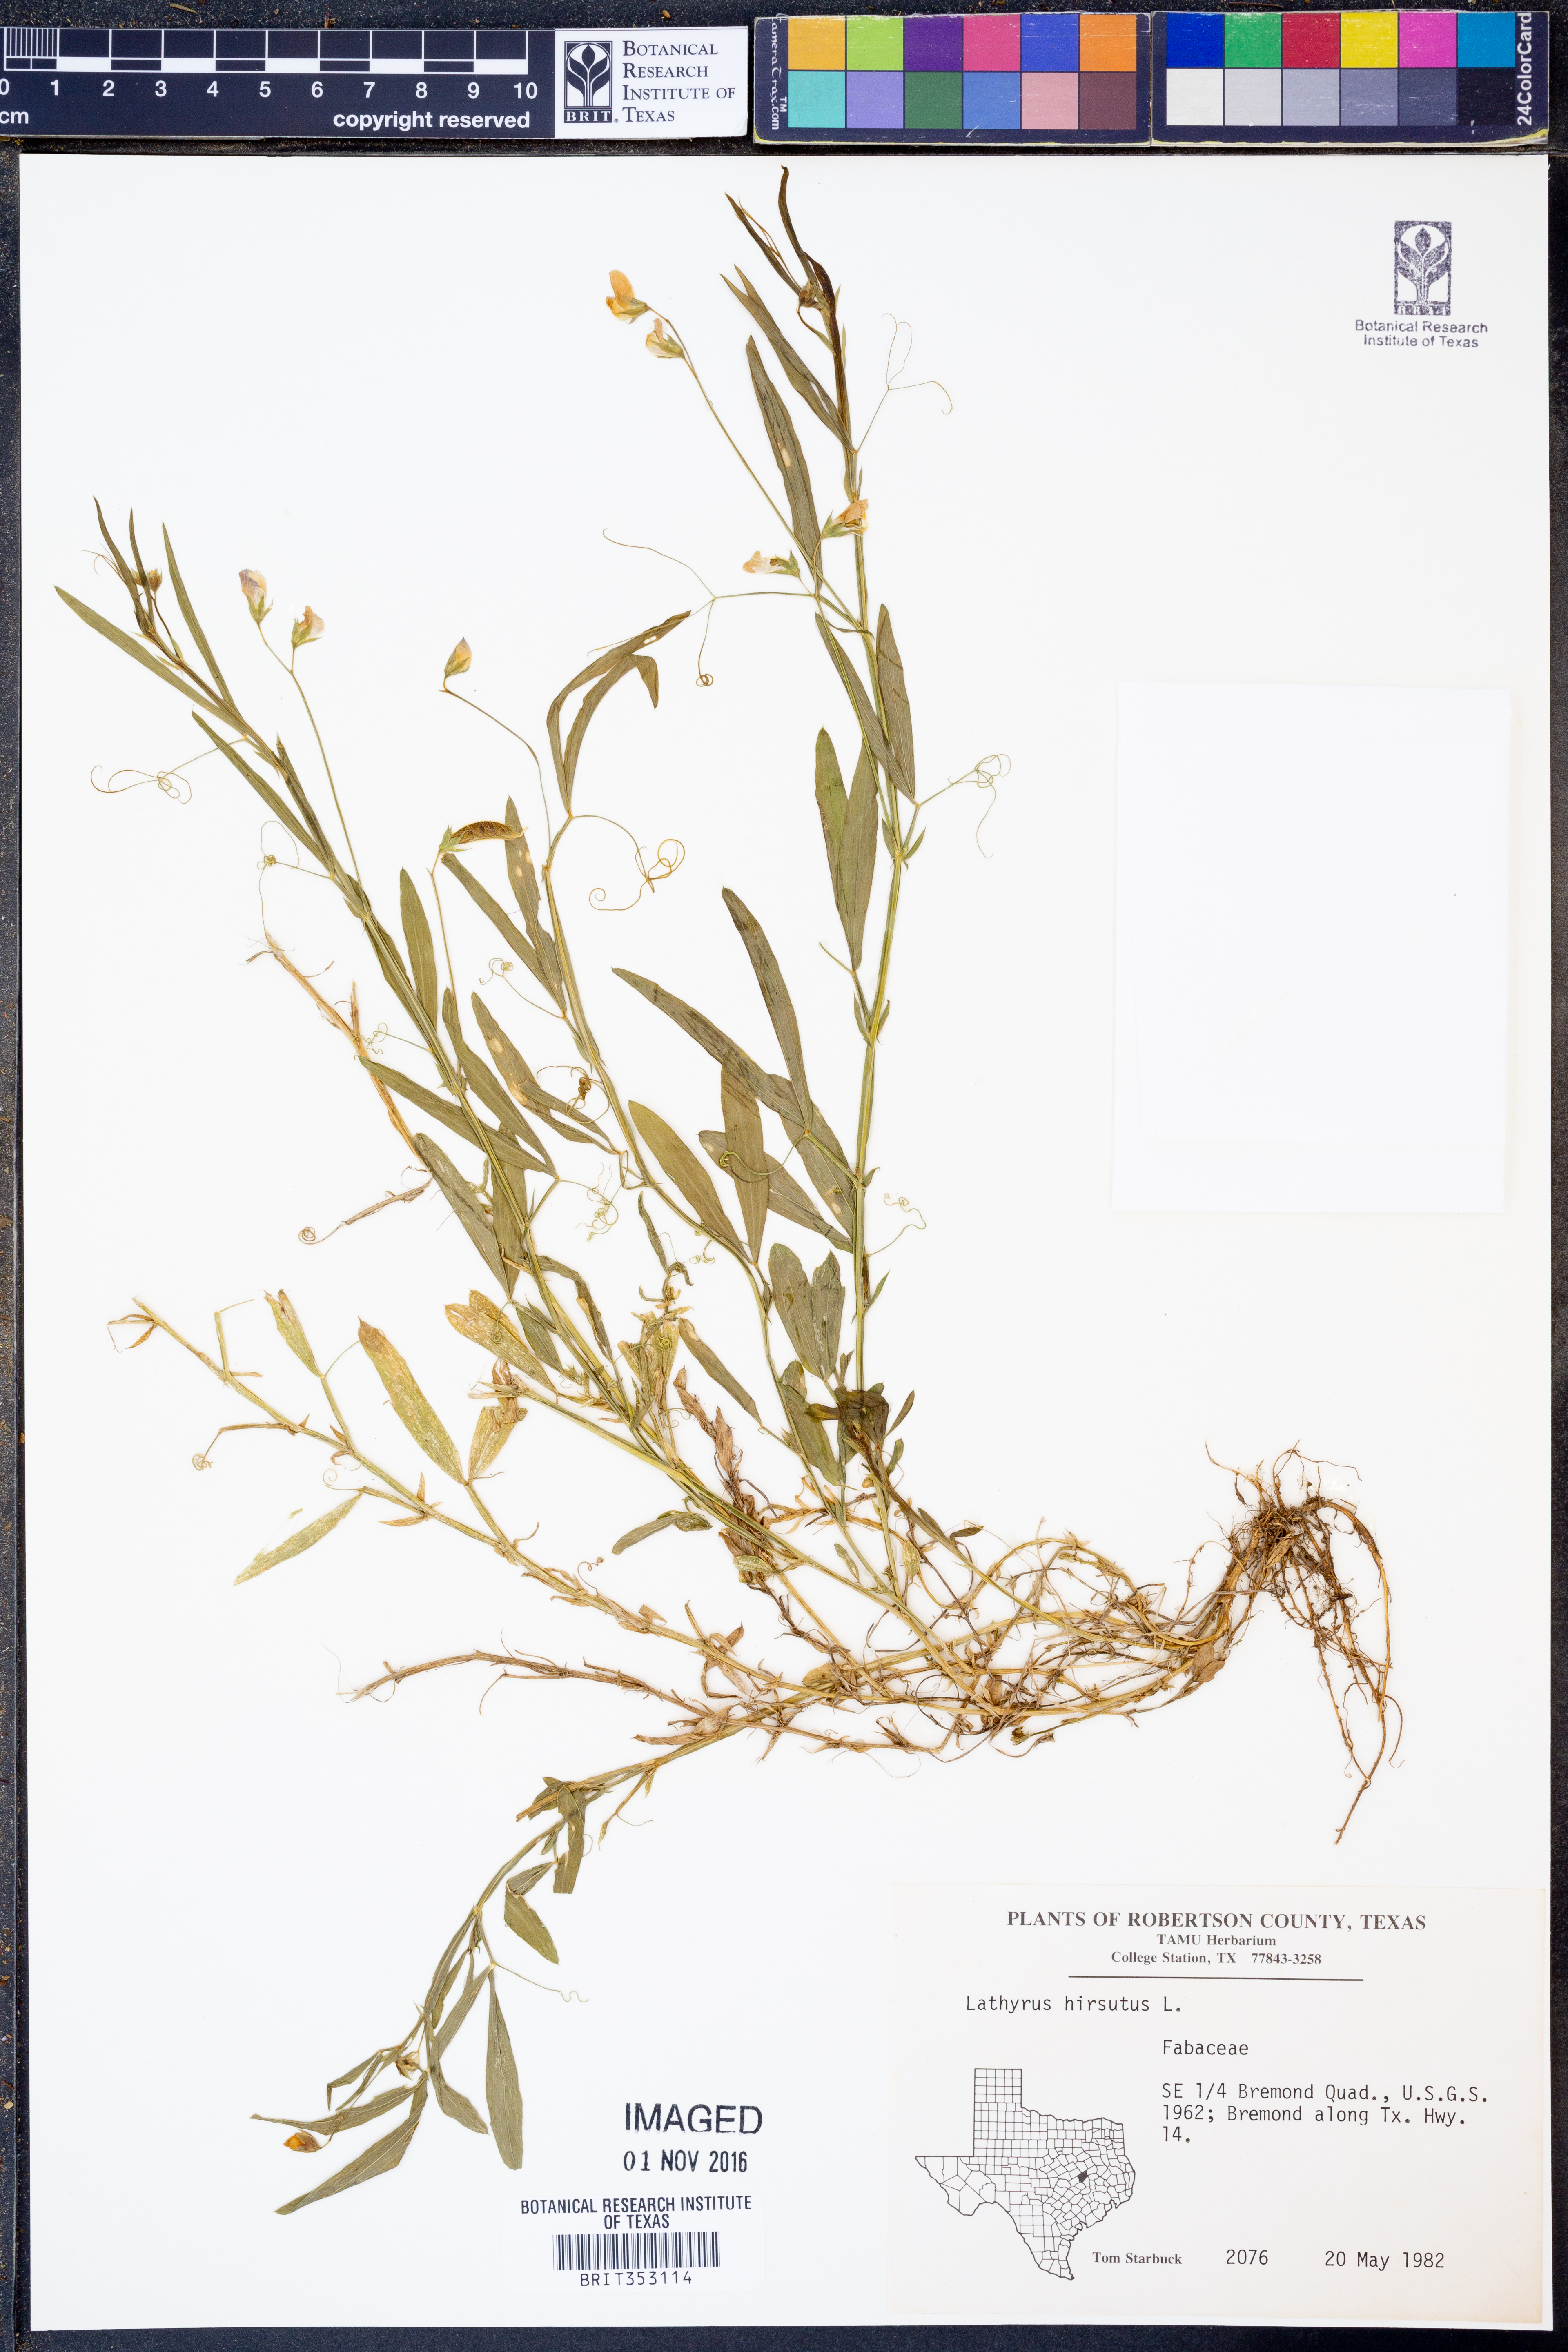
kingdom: Plantae
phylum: Tracheophyta
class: Magnoliopsida
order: Fabales
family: Fabaceae
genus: Lathyrus
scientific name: Lathyrus hirsutus
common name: Hairy vetchling
